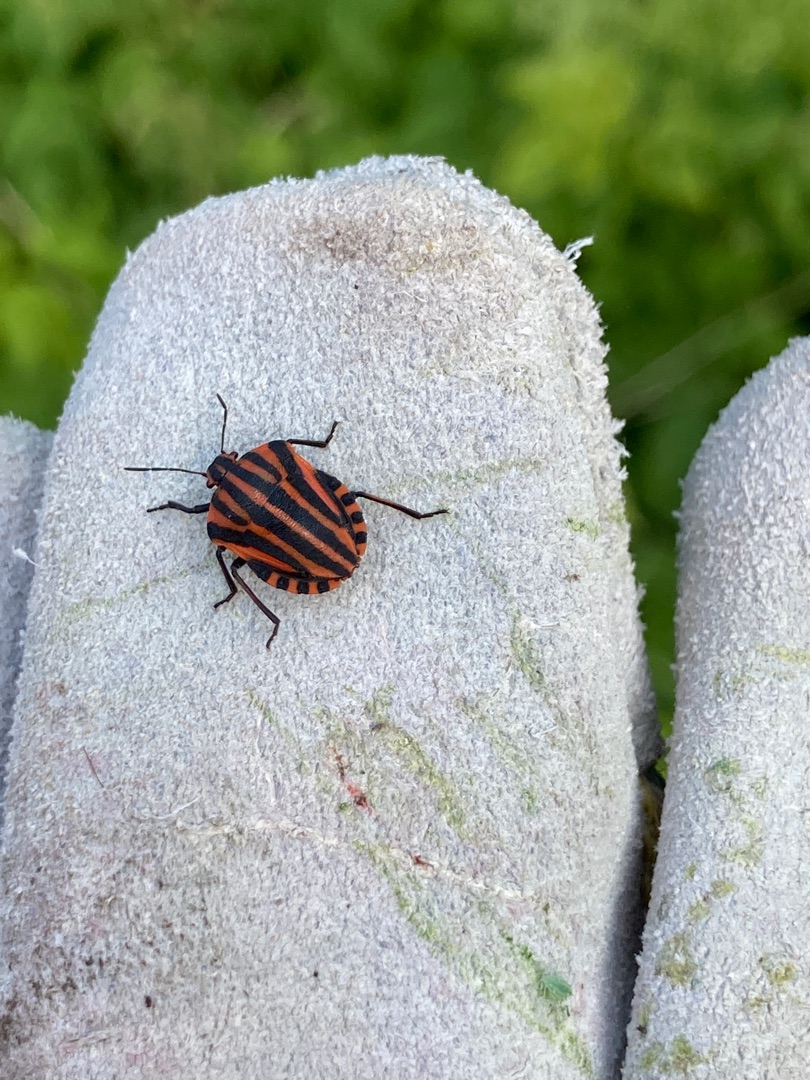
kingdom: Animalia
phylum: Arthropoda
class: Insecta
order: Hemiptera
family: Pentatomidae
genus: Graphosoma
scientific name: Graphosoma italicum
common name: Stribetæge
